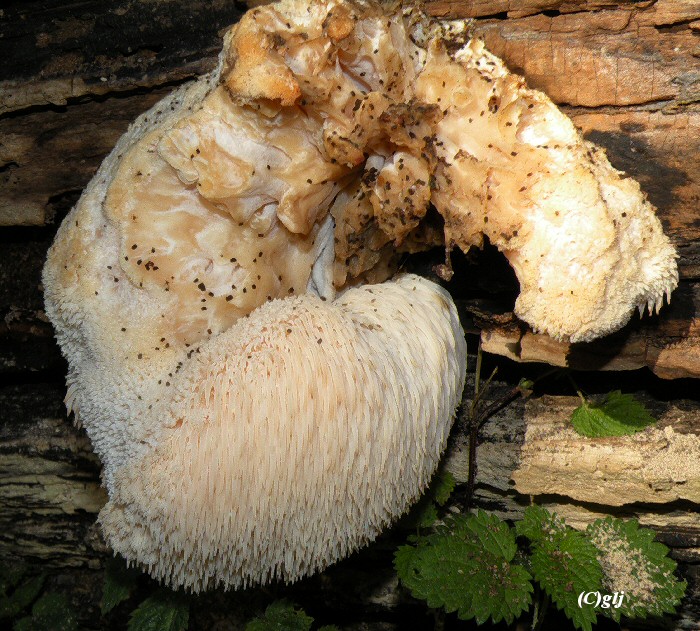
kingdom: Fungi
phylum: Basidiomycota
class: Agaricomycetes
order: Russulales
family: Hericiaceae
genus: Hericium
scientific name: Hericium erinaceus
